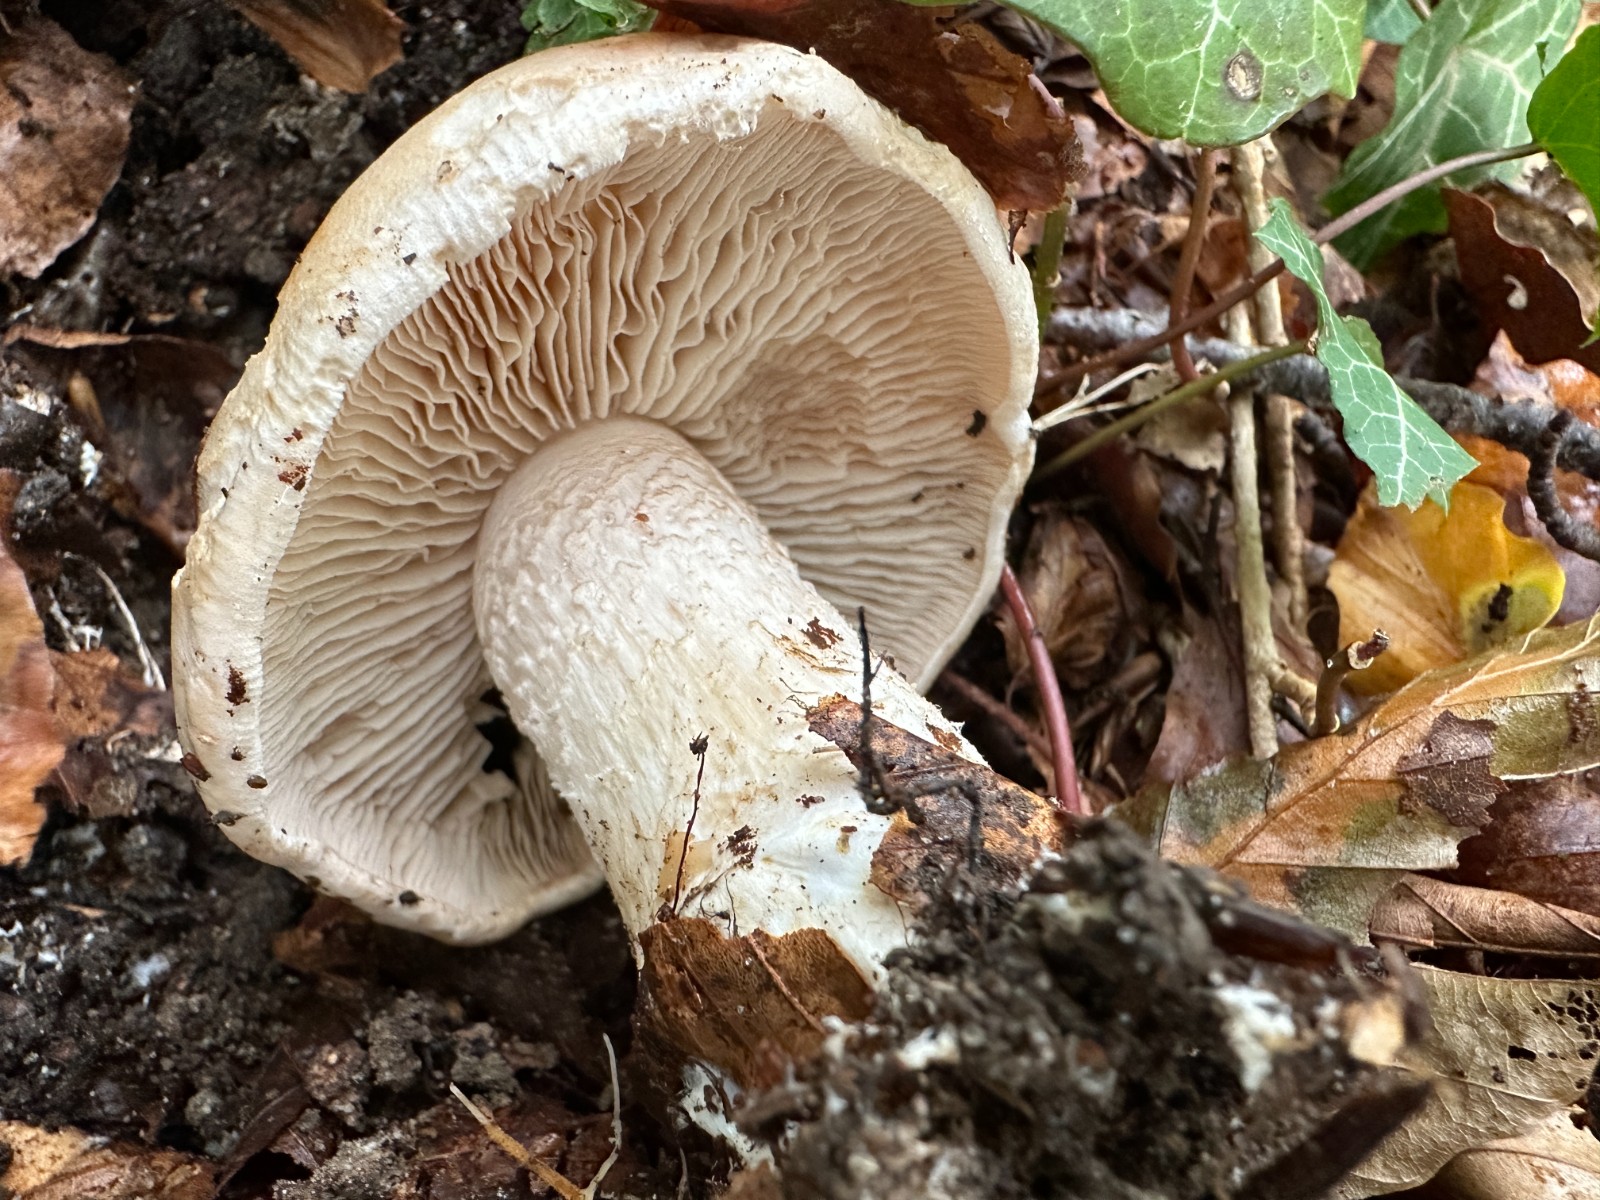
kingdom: Fungi
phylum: Basidiomycota
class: Agaricomycetes
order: Agaricales
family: Hymenogastraceae
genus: Hebeloma
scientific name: Hebeloma sinapizans
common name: ræddike-tåreblad
